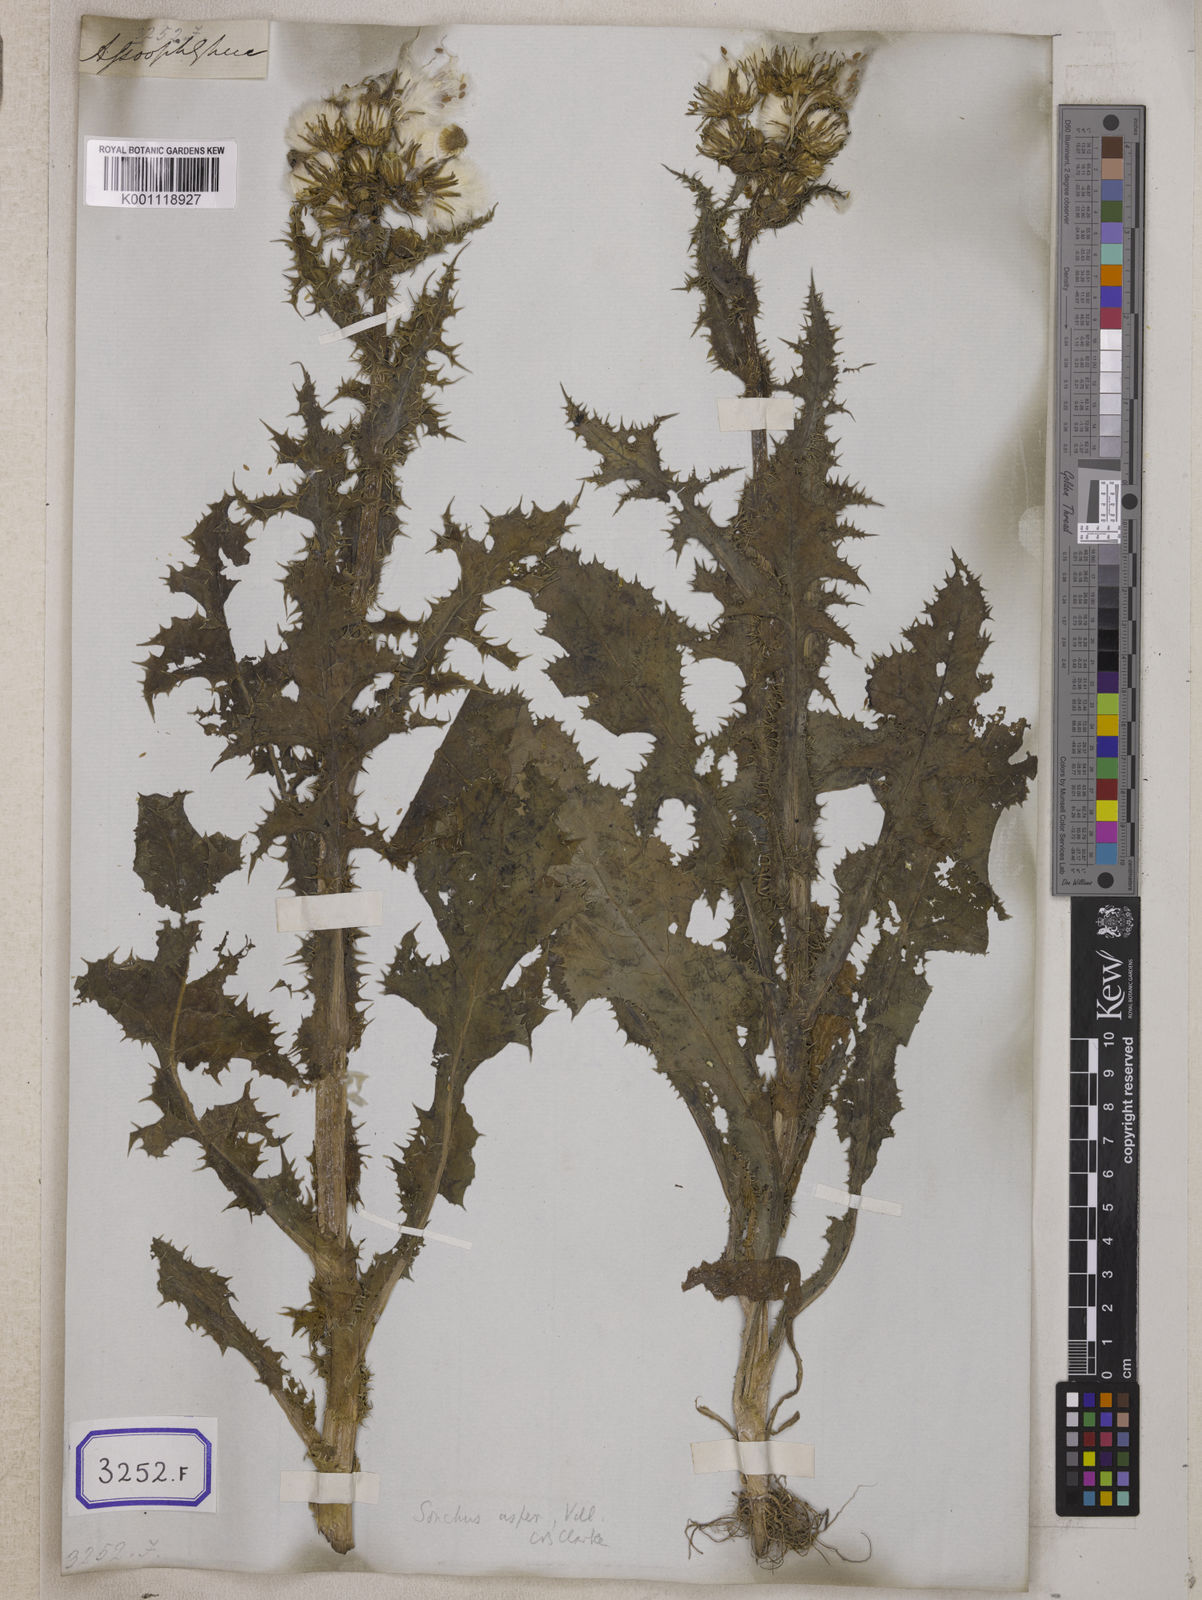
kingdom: Plantae
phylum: Tracheophyta
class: Magnoliopsida
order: Asterales
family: Asteraceae
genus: Sonchus
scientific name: Sonchus
